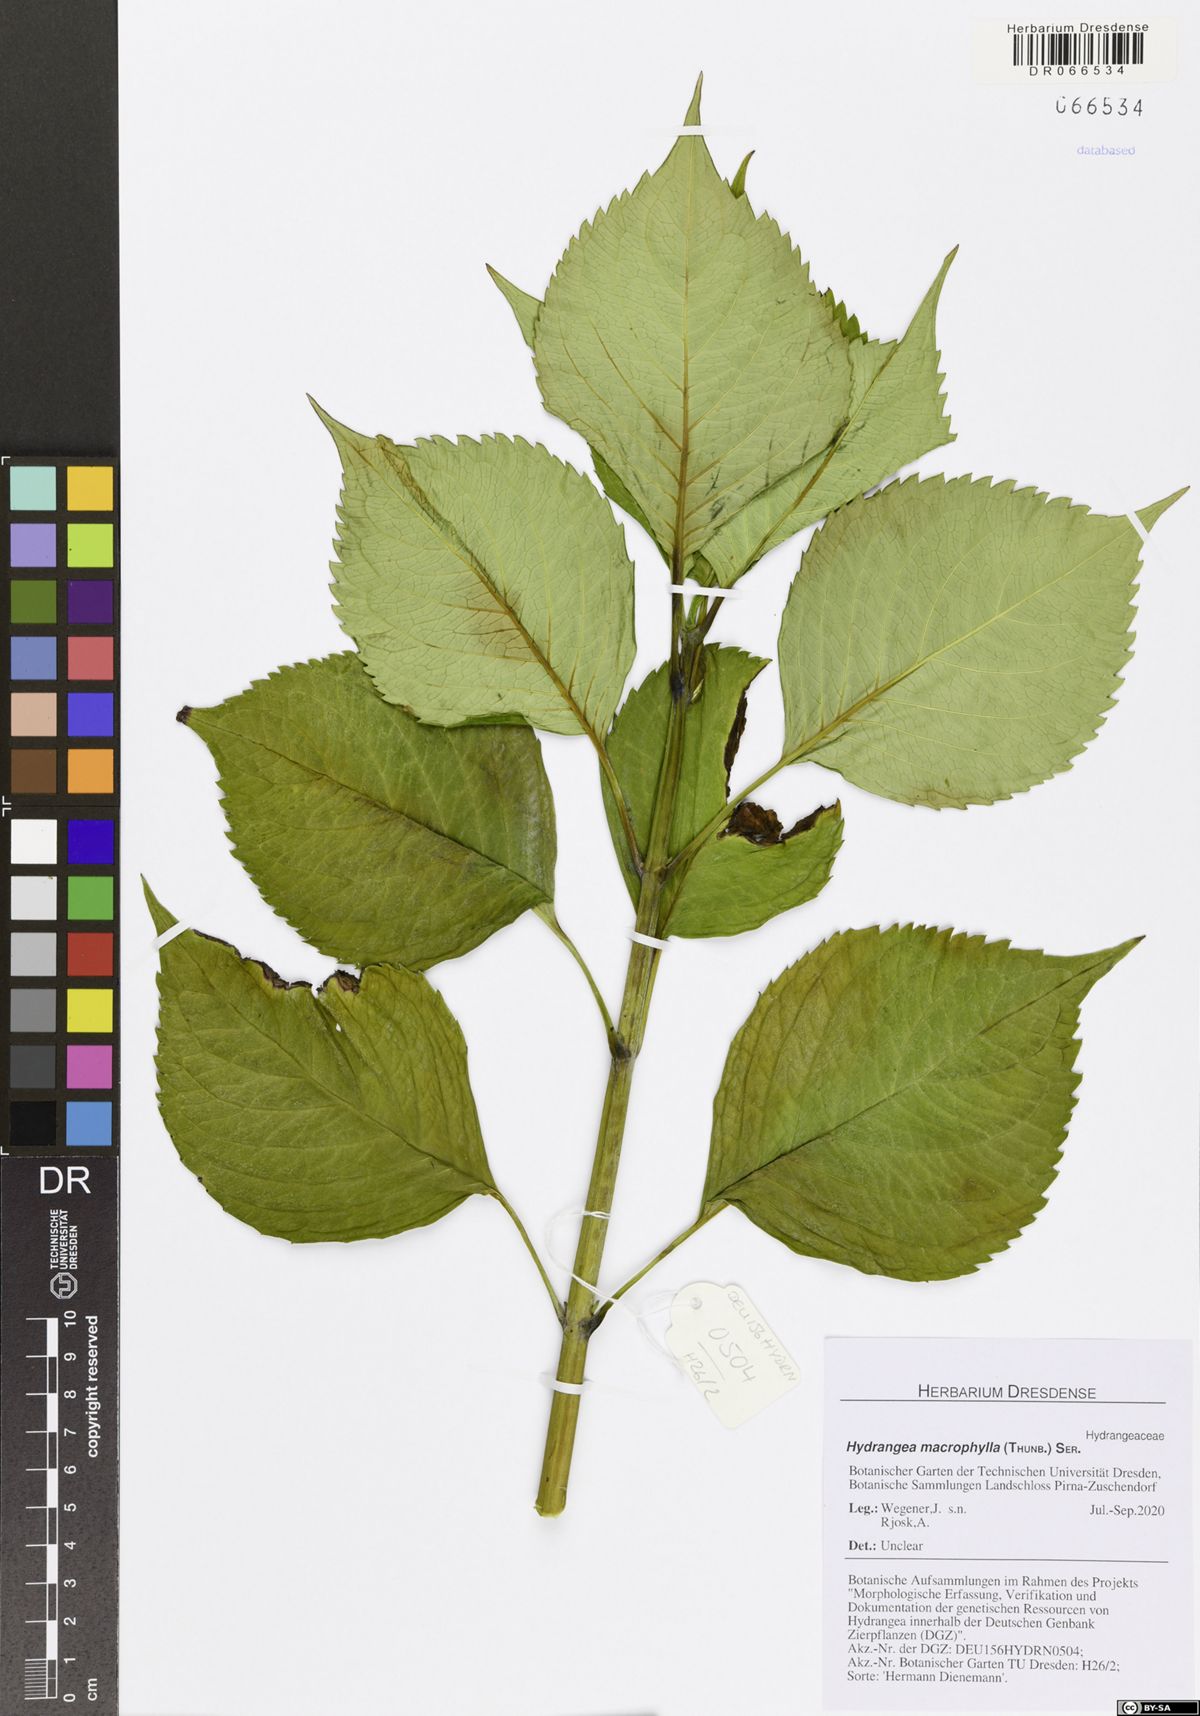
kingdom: Plantae
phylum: Tracheophyta
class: Magnoliopsida
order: Cornales
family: Hydrangeaceae
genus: Hydrangea
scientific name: Hydrangea macrophylla
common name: Hydrangea
